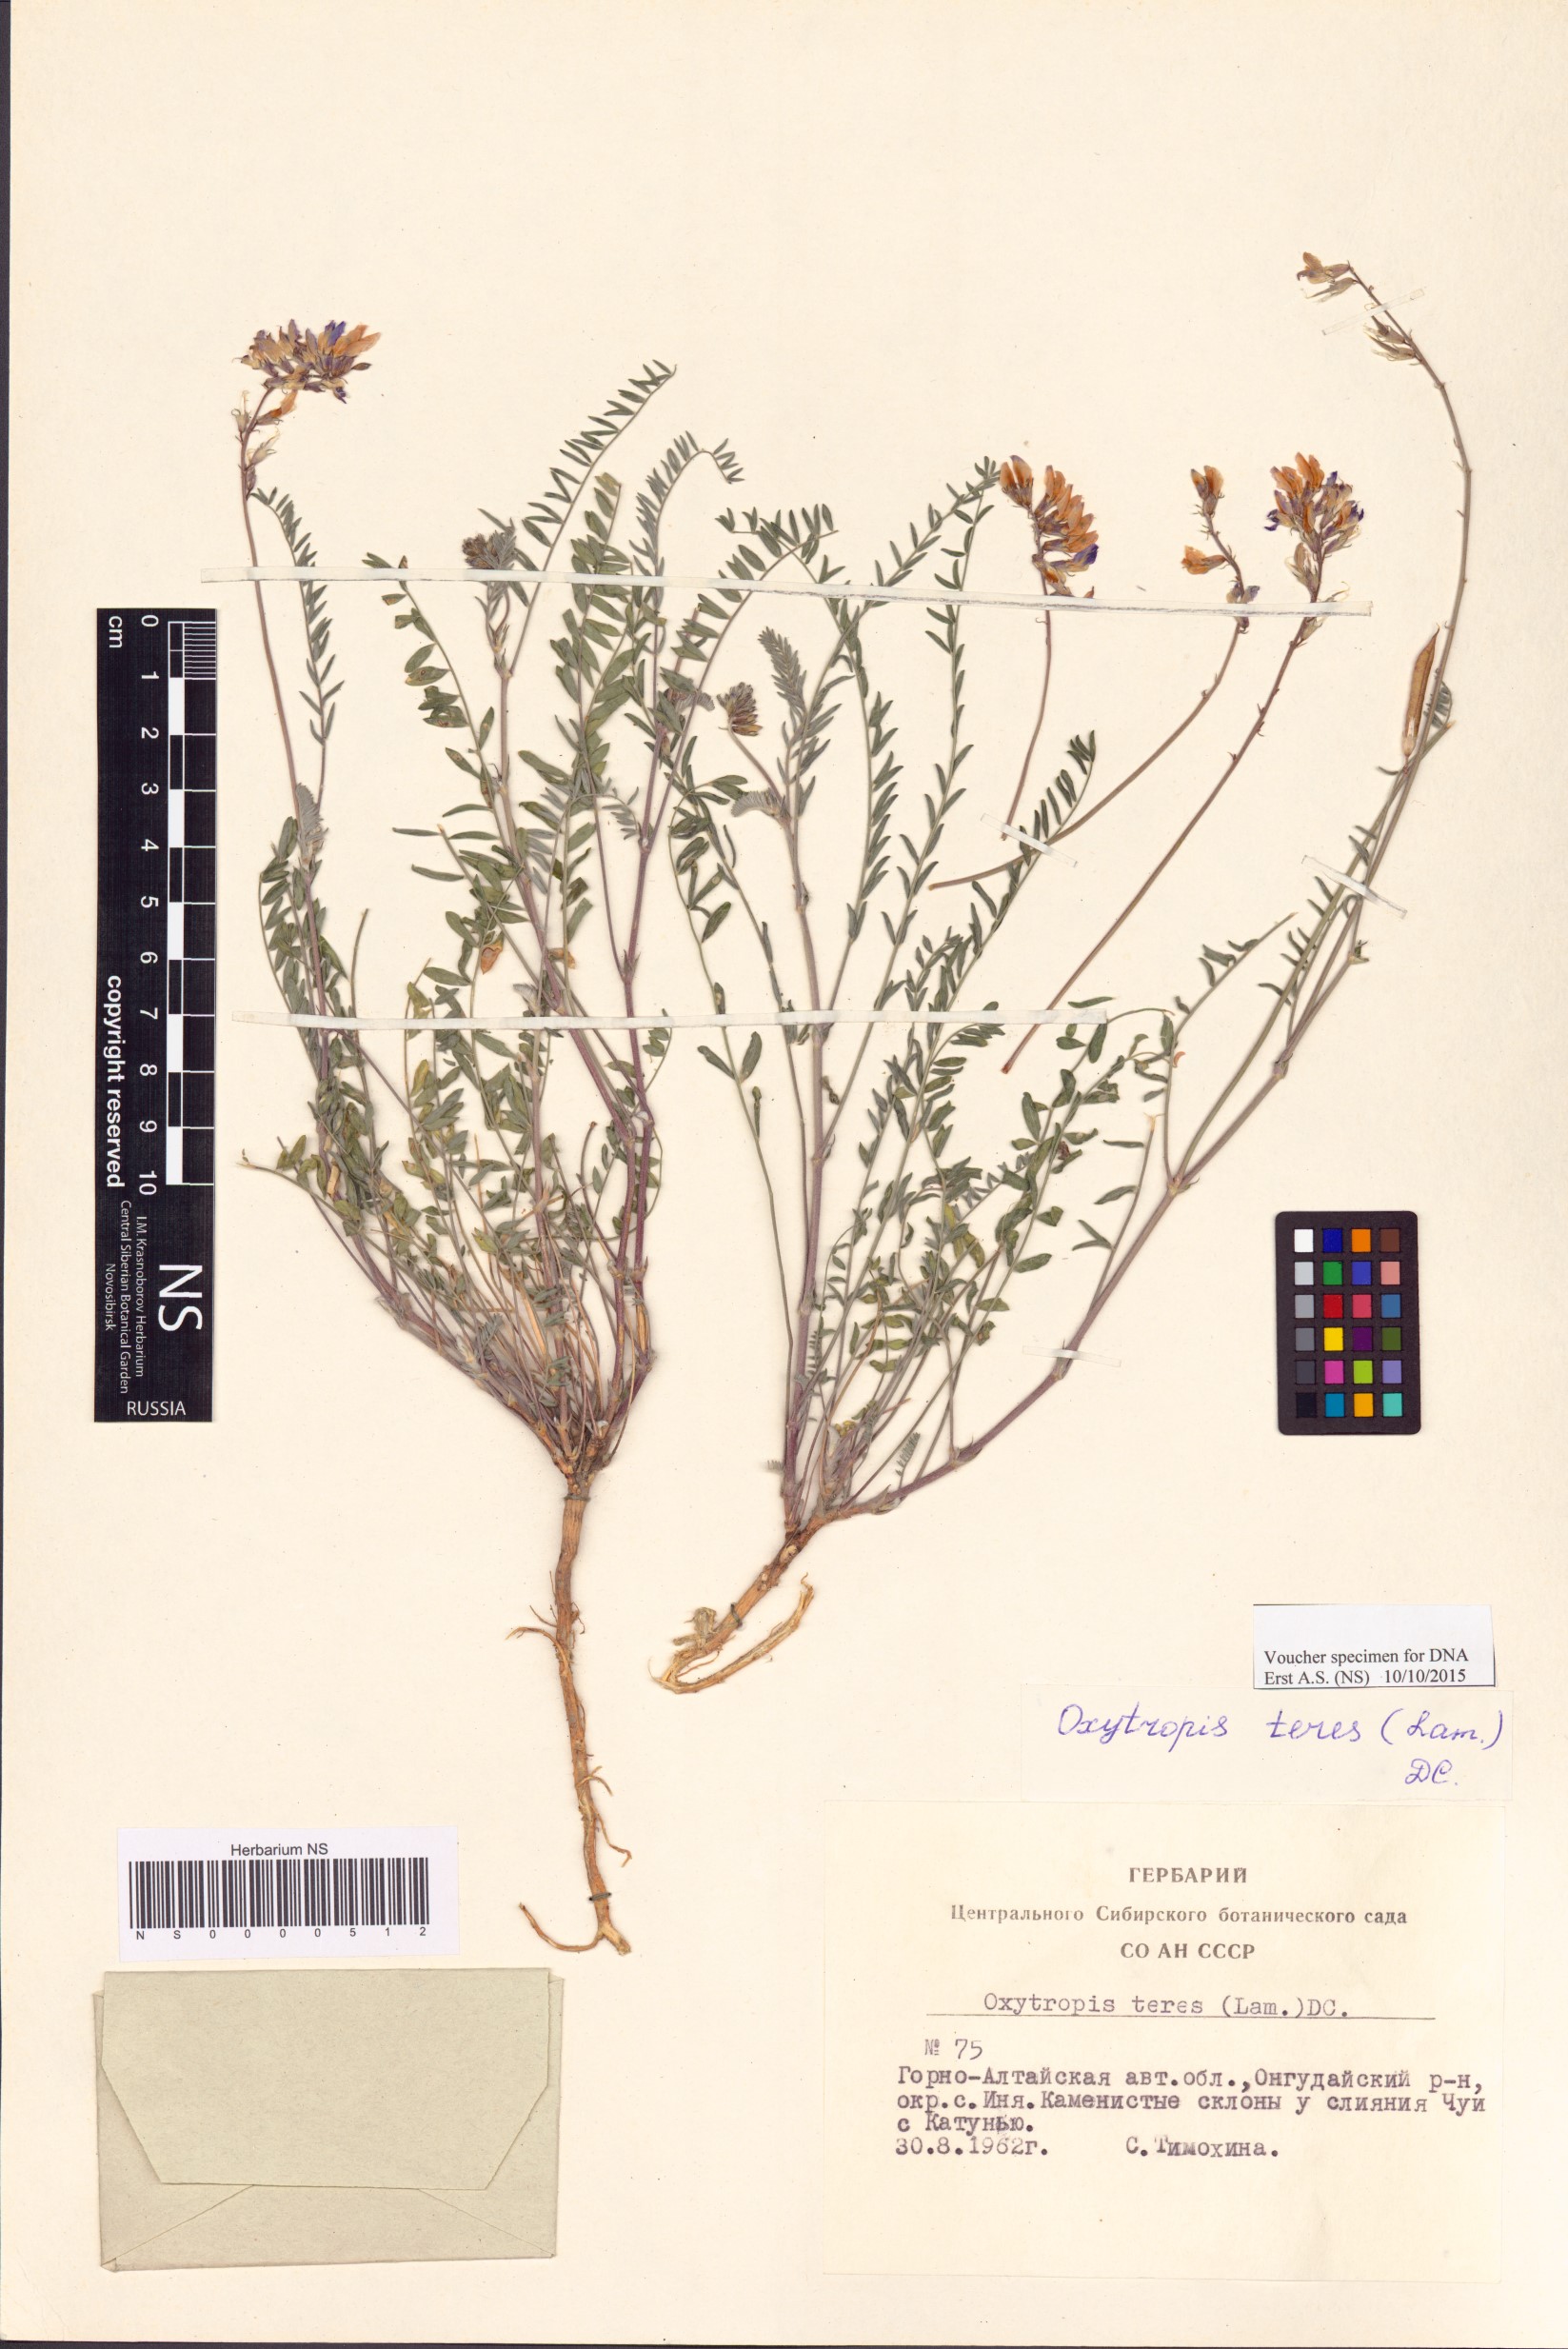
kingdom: Plantae
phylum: Tracheophyta
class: Magnoliopsida
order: Fabales
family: Fabaceae
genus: Oxytropis
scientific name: Oxytropis teres
